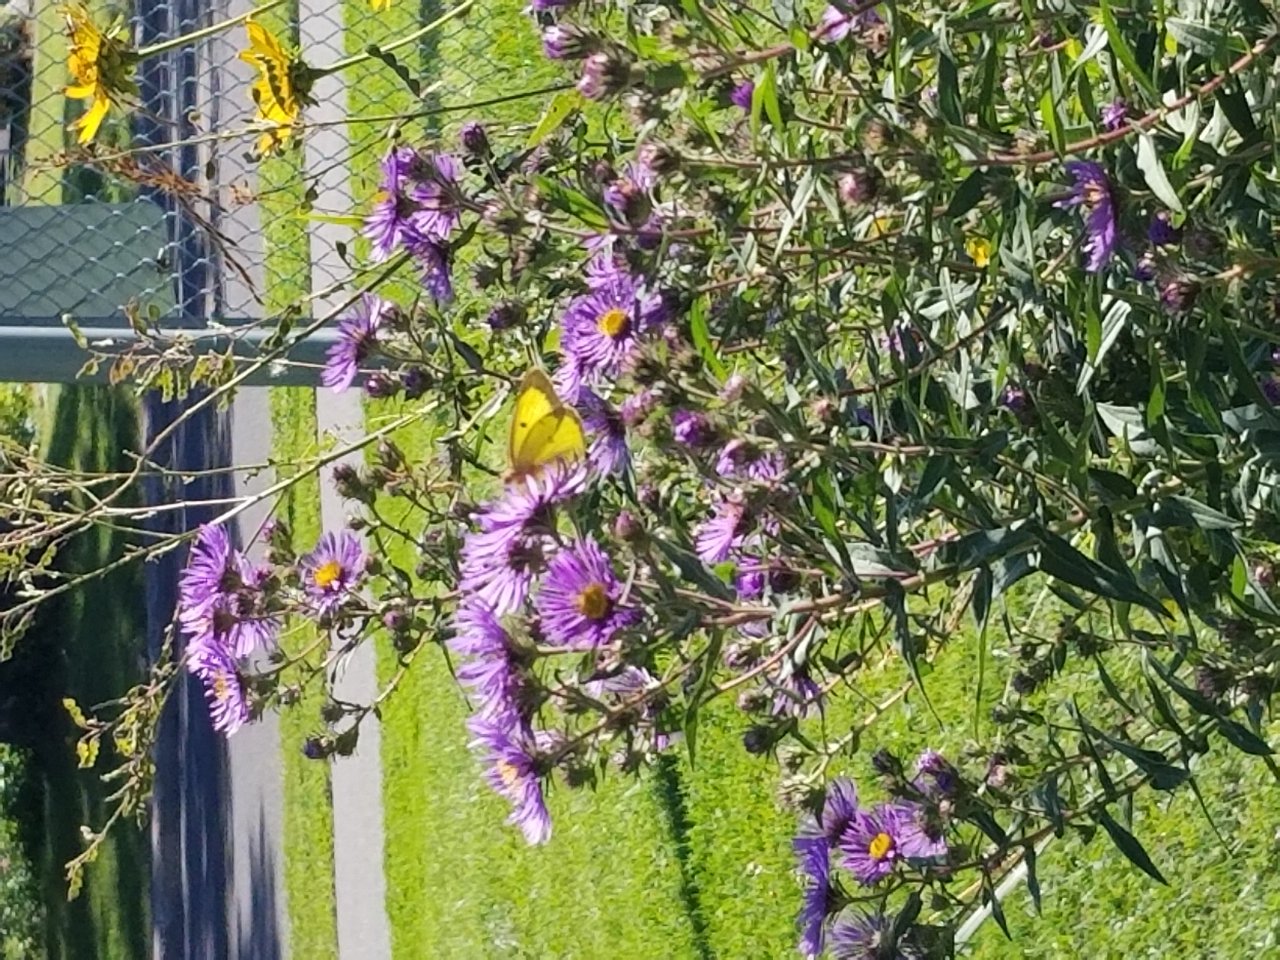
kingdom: Animalia
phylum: Arthropoda
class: Insecta
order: Lepidoptera
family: Pieridae
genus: Colias
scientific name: Colias philodice
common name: Clouded Sulphur
